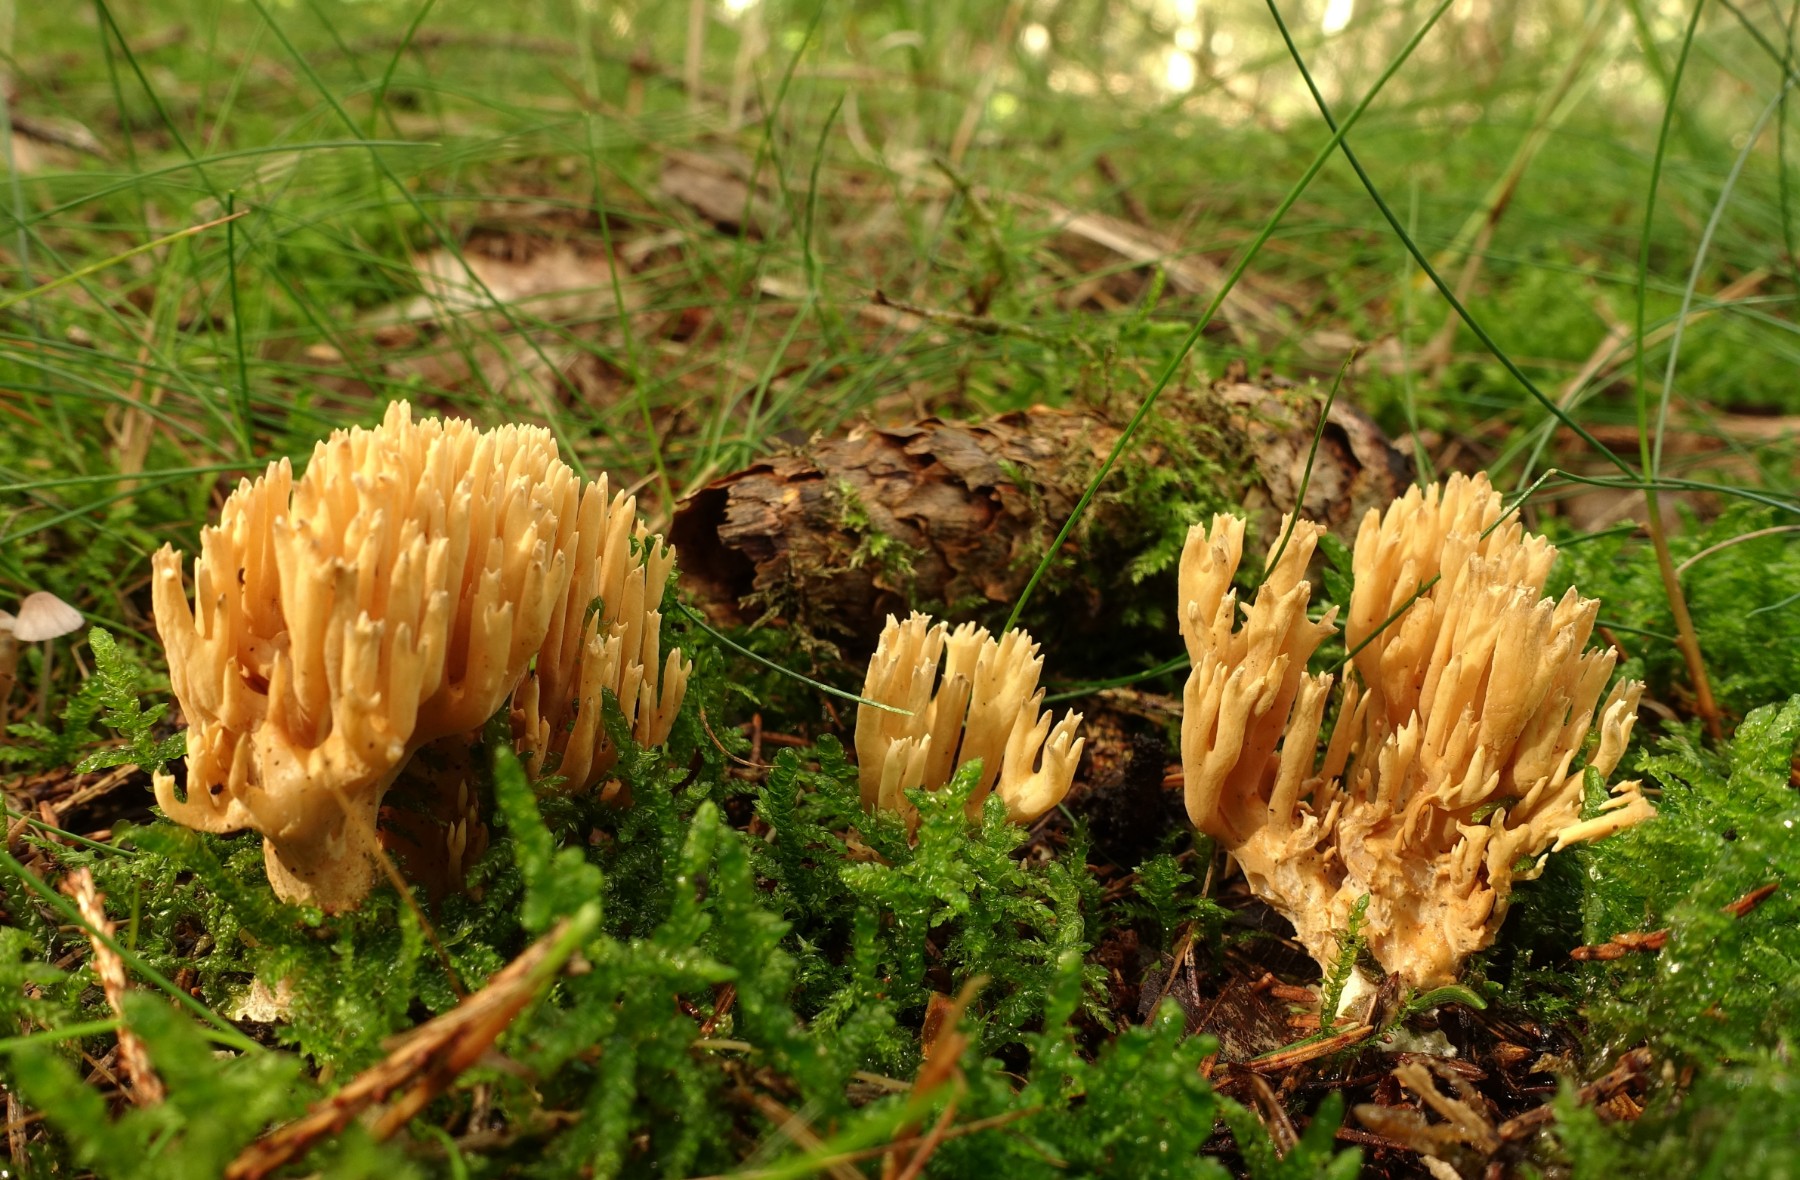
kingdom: Fungi
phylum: Basidiomycota
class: Agaricomycetes
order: Gomphales
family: Gomphaceae
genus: Phaeoclavulina
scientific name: Phaeoclavulina eumorpha
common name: gran-koralsvamp
